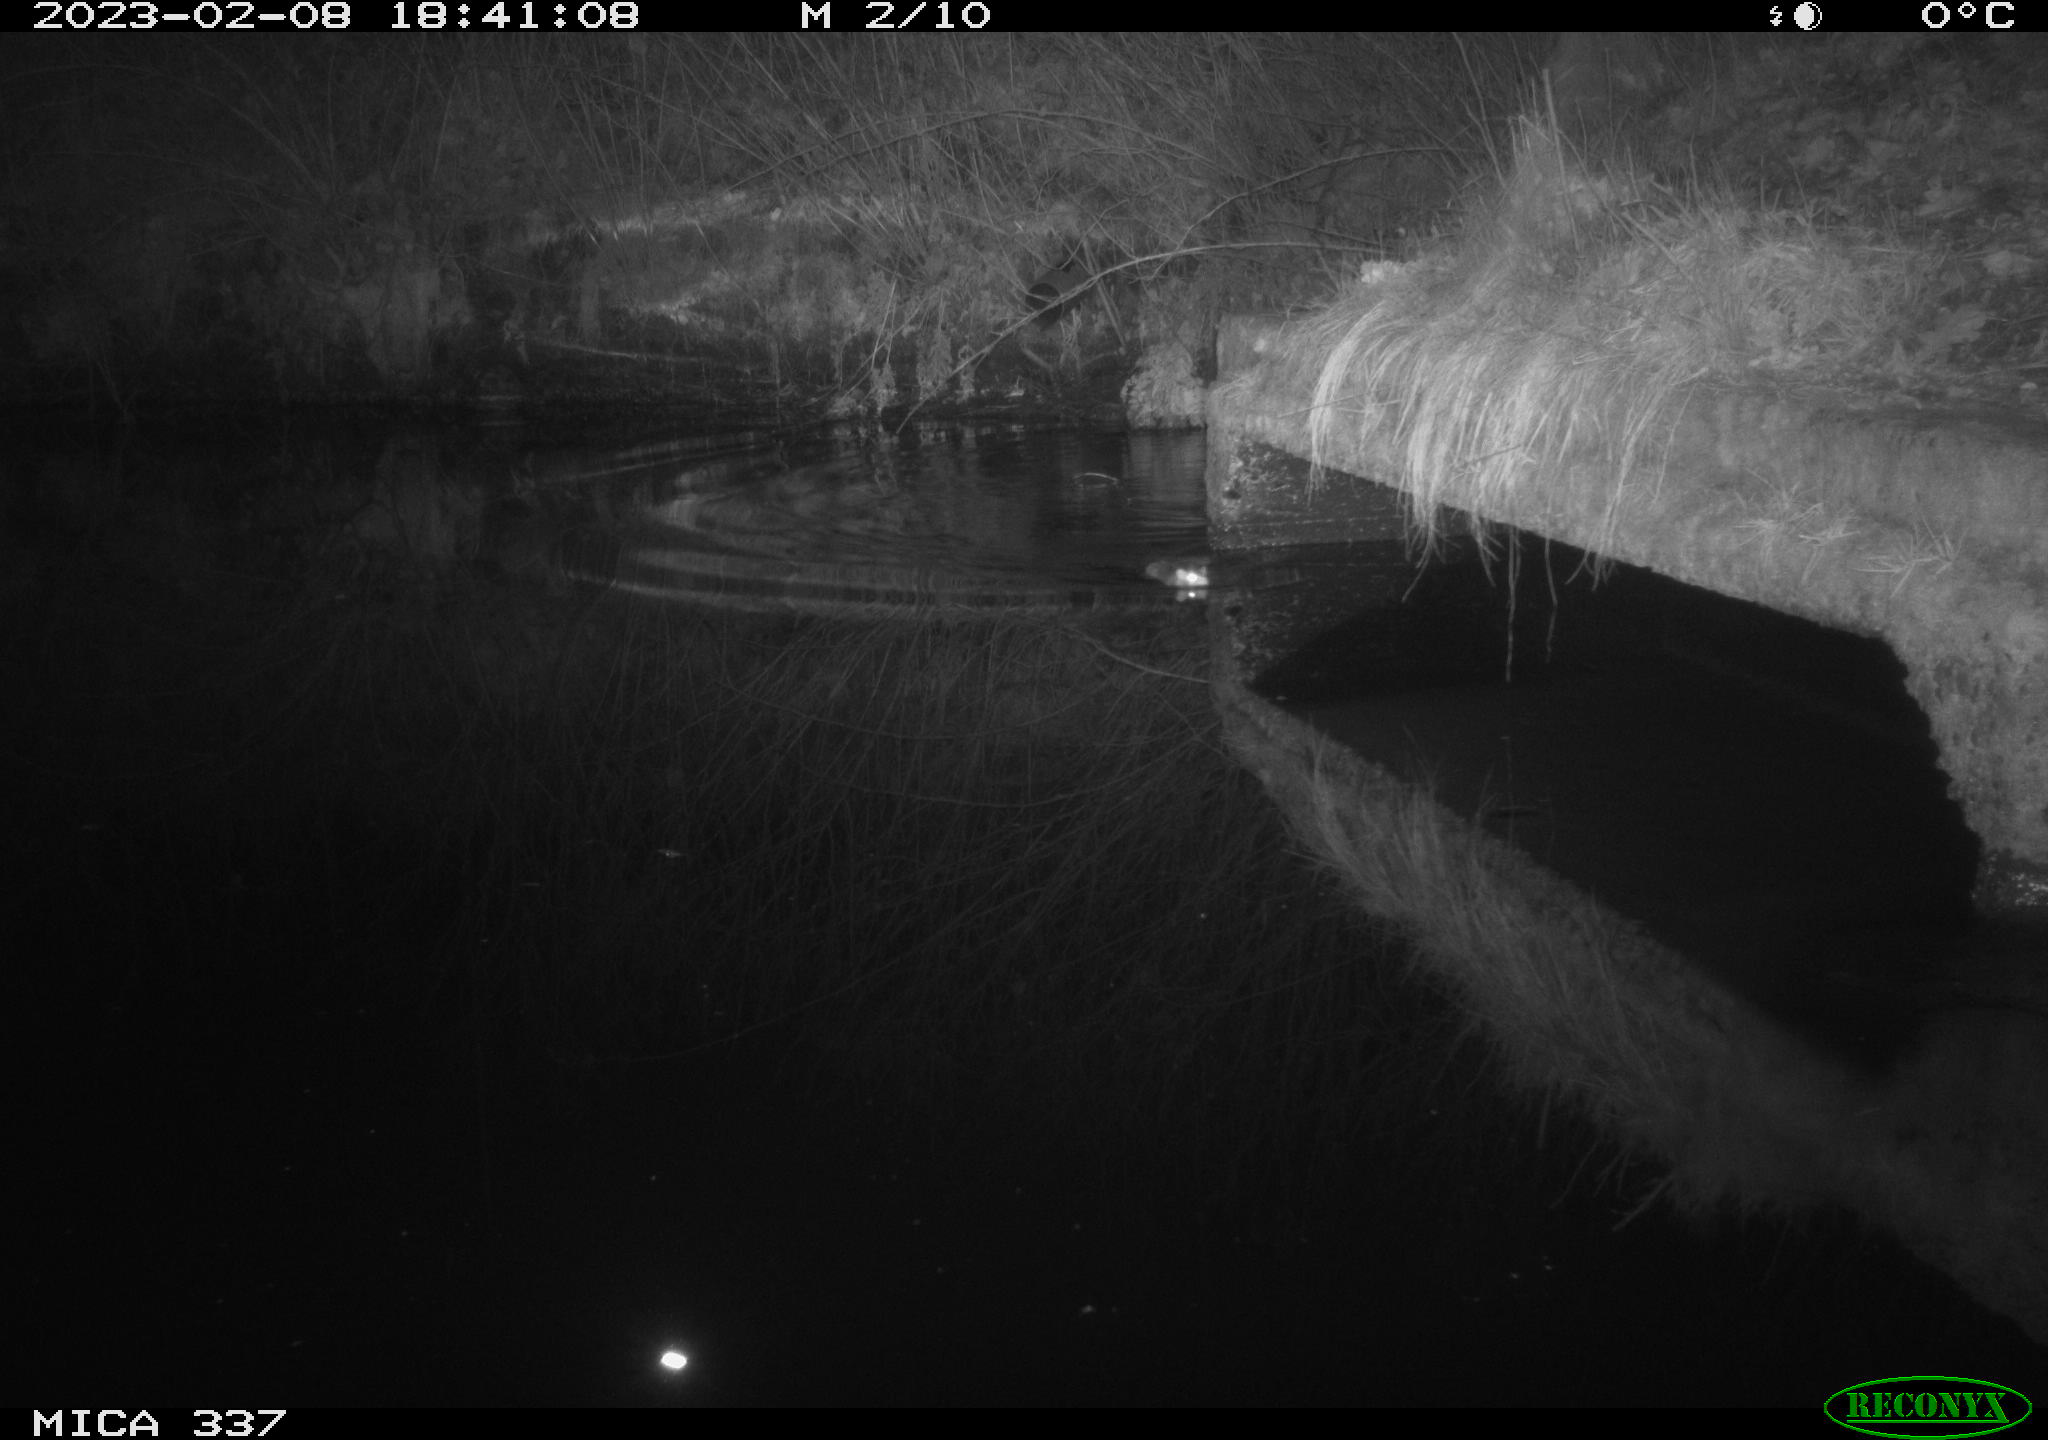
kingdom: Animalia
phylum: Chordata
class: Mammalia
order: Rodentia
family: Muridae
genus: Rattus
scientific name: Rattus norvegicus
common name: Brown rat
